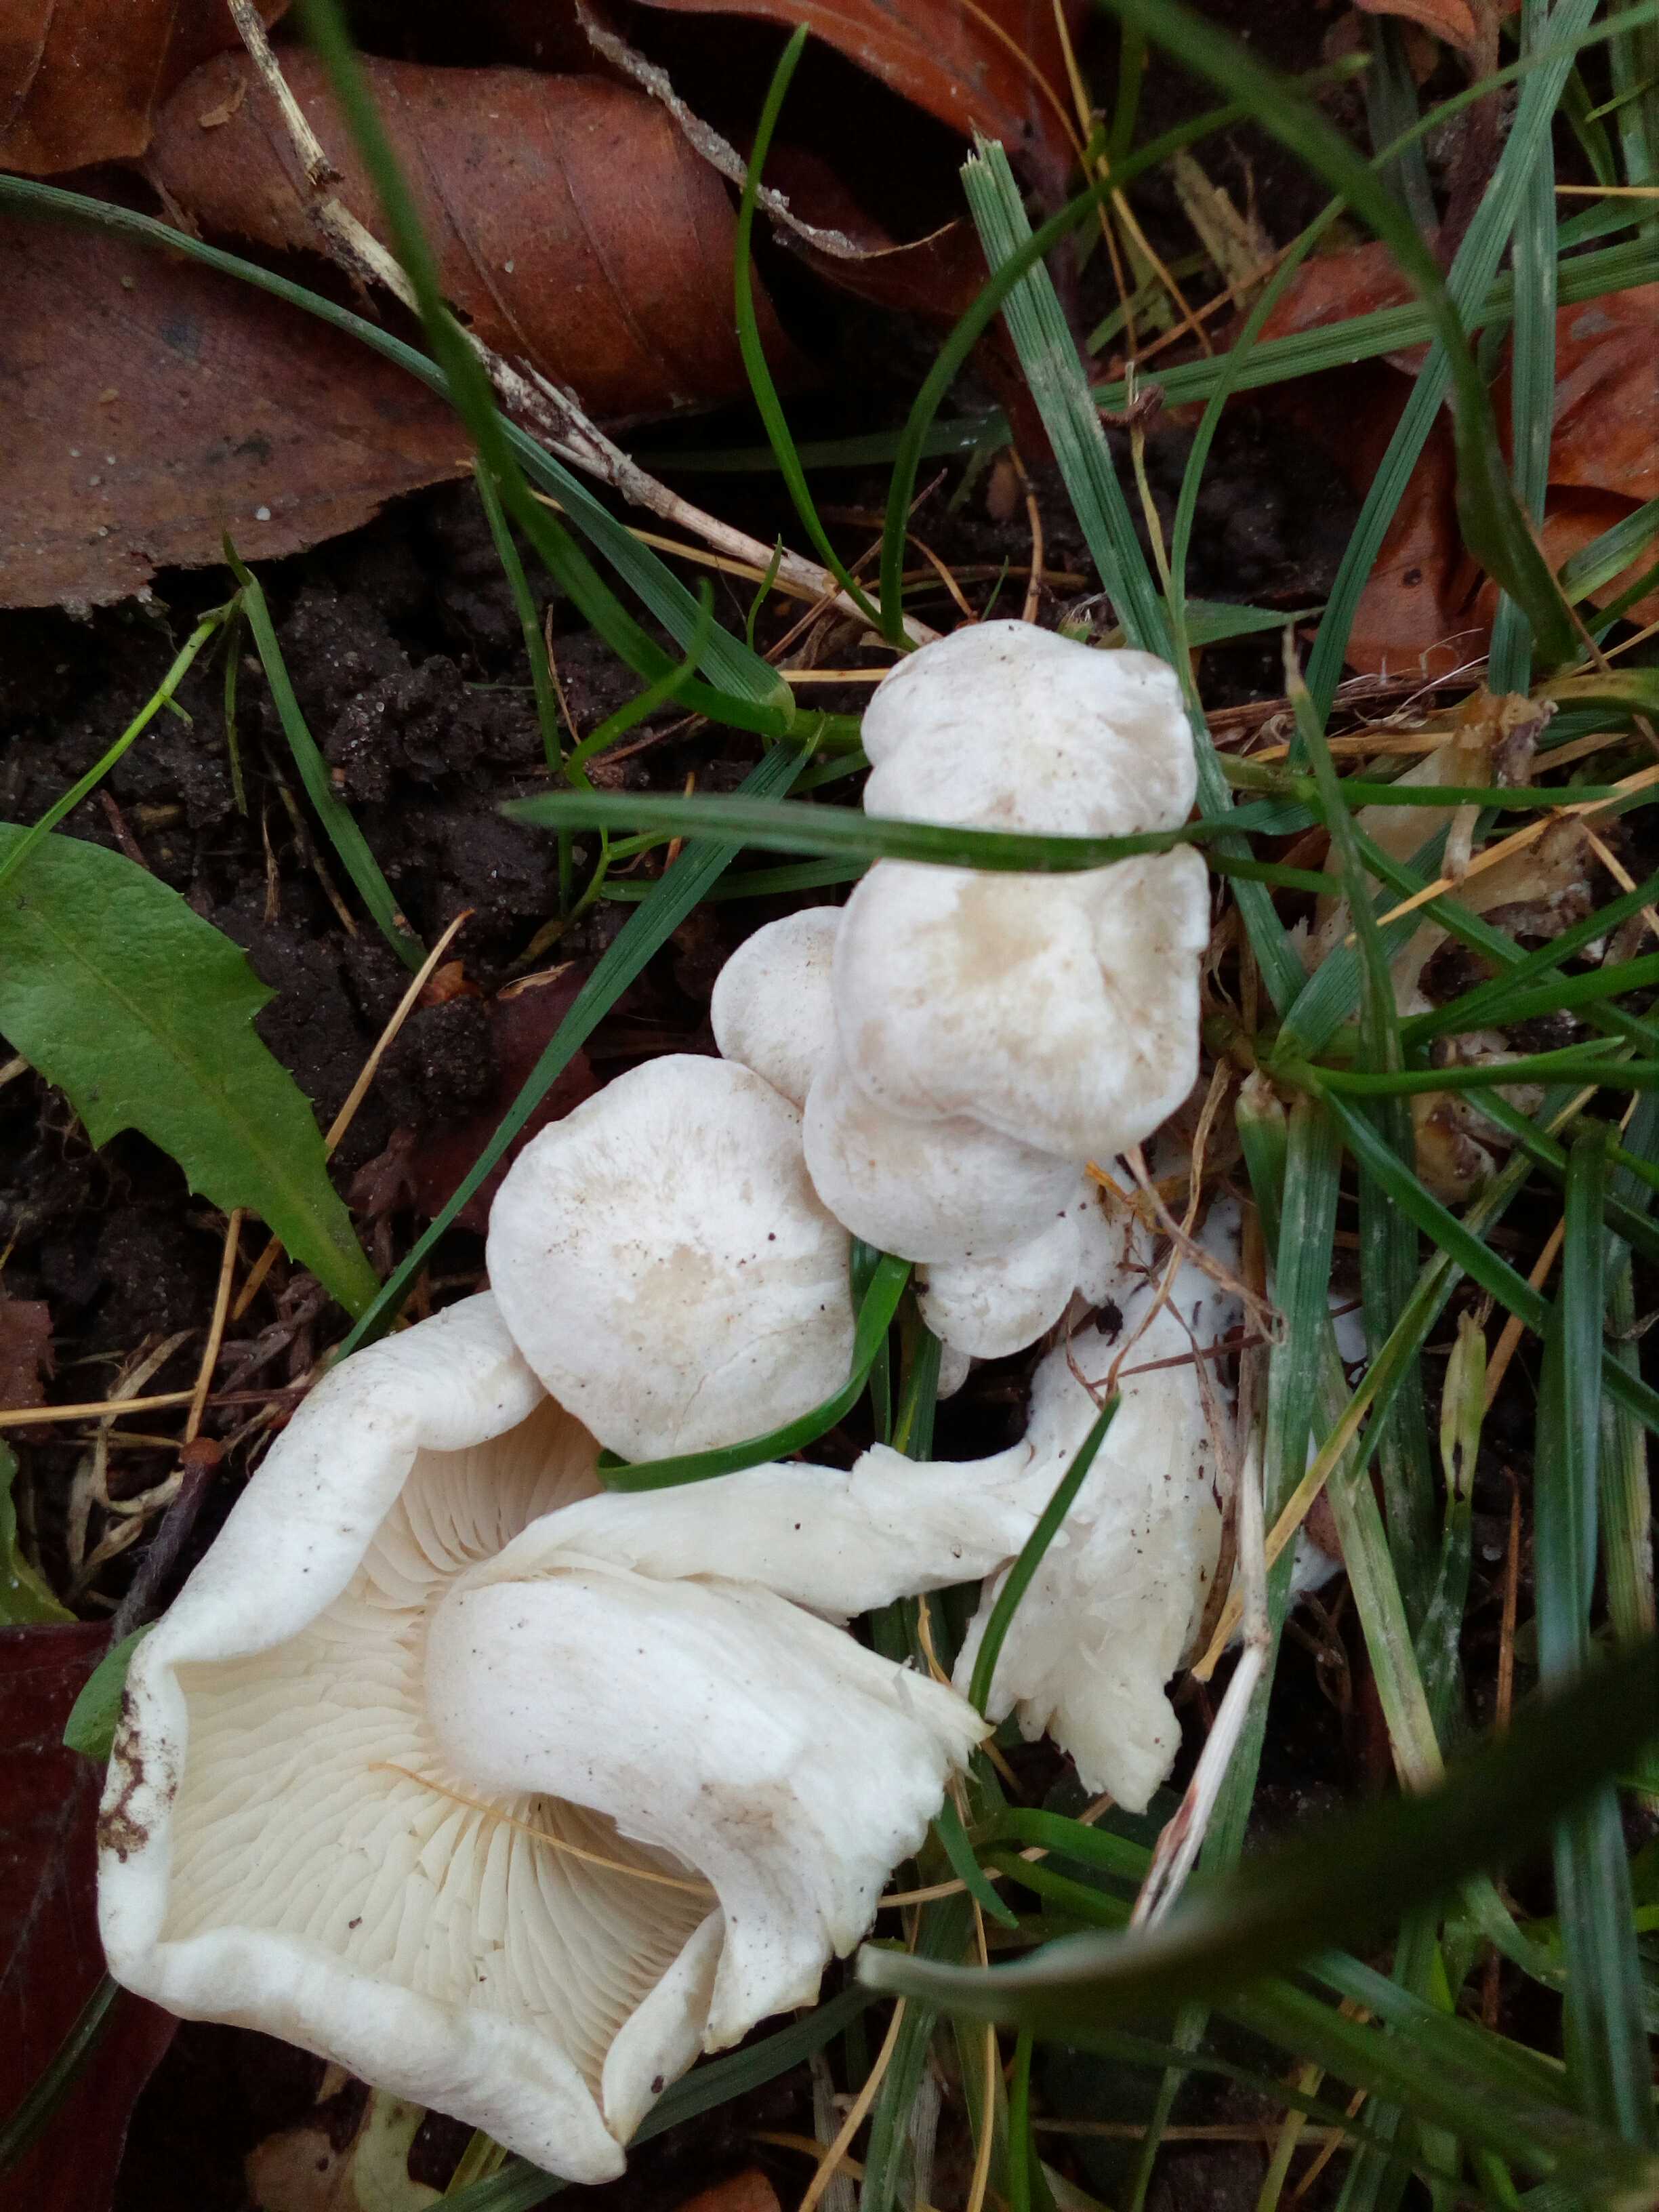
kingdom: Fungi
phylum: Basidiomycota
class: Agaricomycetes
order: Agaricales
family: Tricholomataceae
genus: Leucocybe
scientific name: Leucocybe connata
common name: knippe-tragthat
